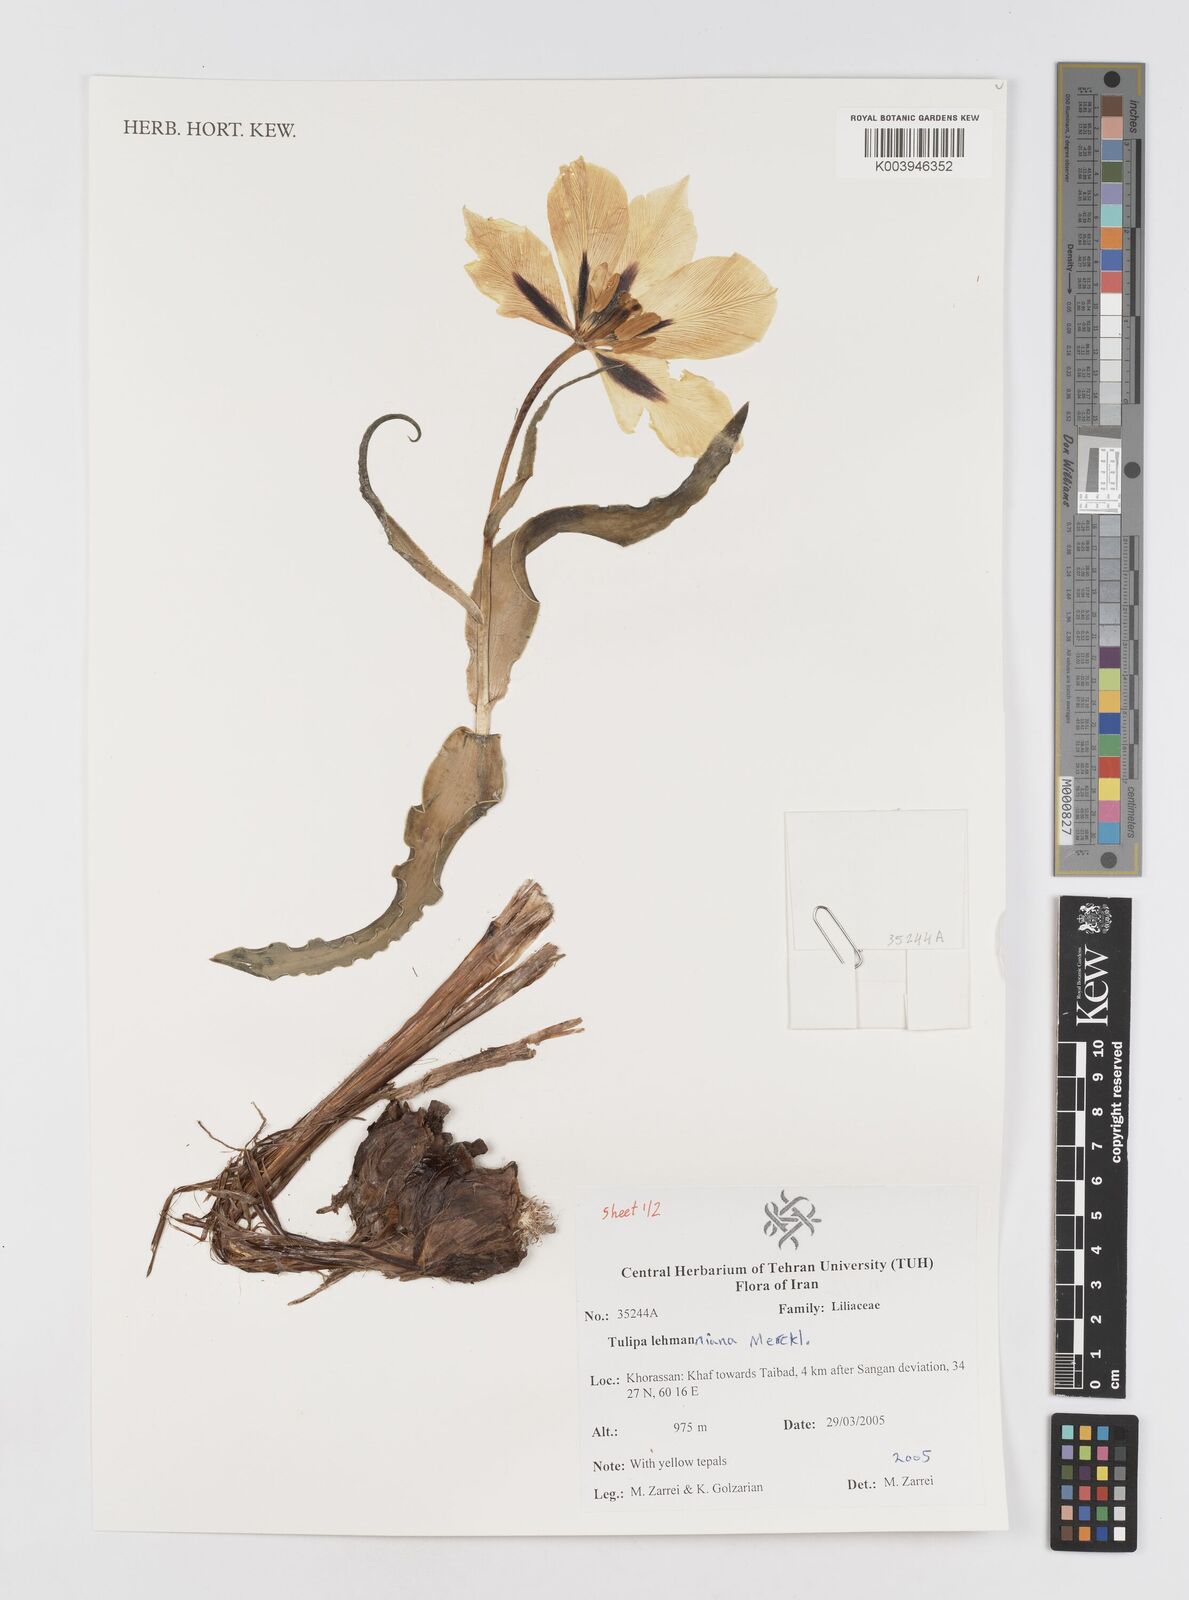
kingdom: Plantae
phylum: Tracheophyta
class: Liliopsida
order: Liliales
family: Liliaceae
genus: Tulipa
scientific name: Tulipa lehmanniana
